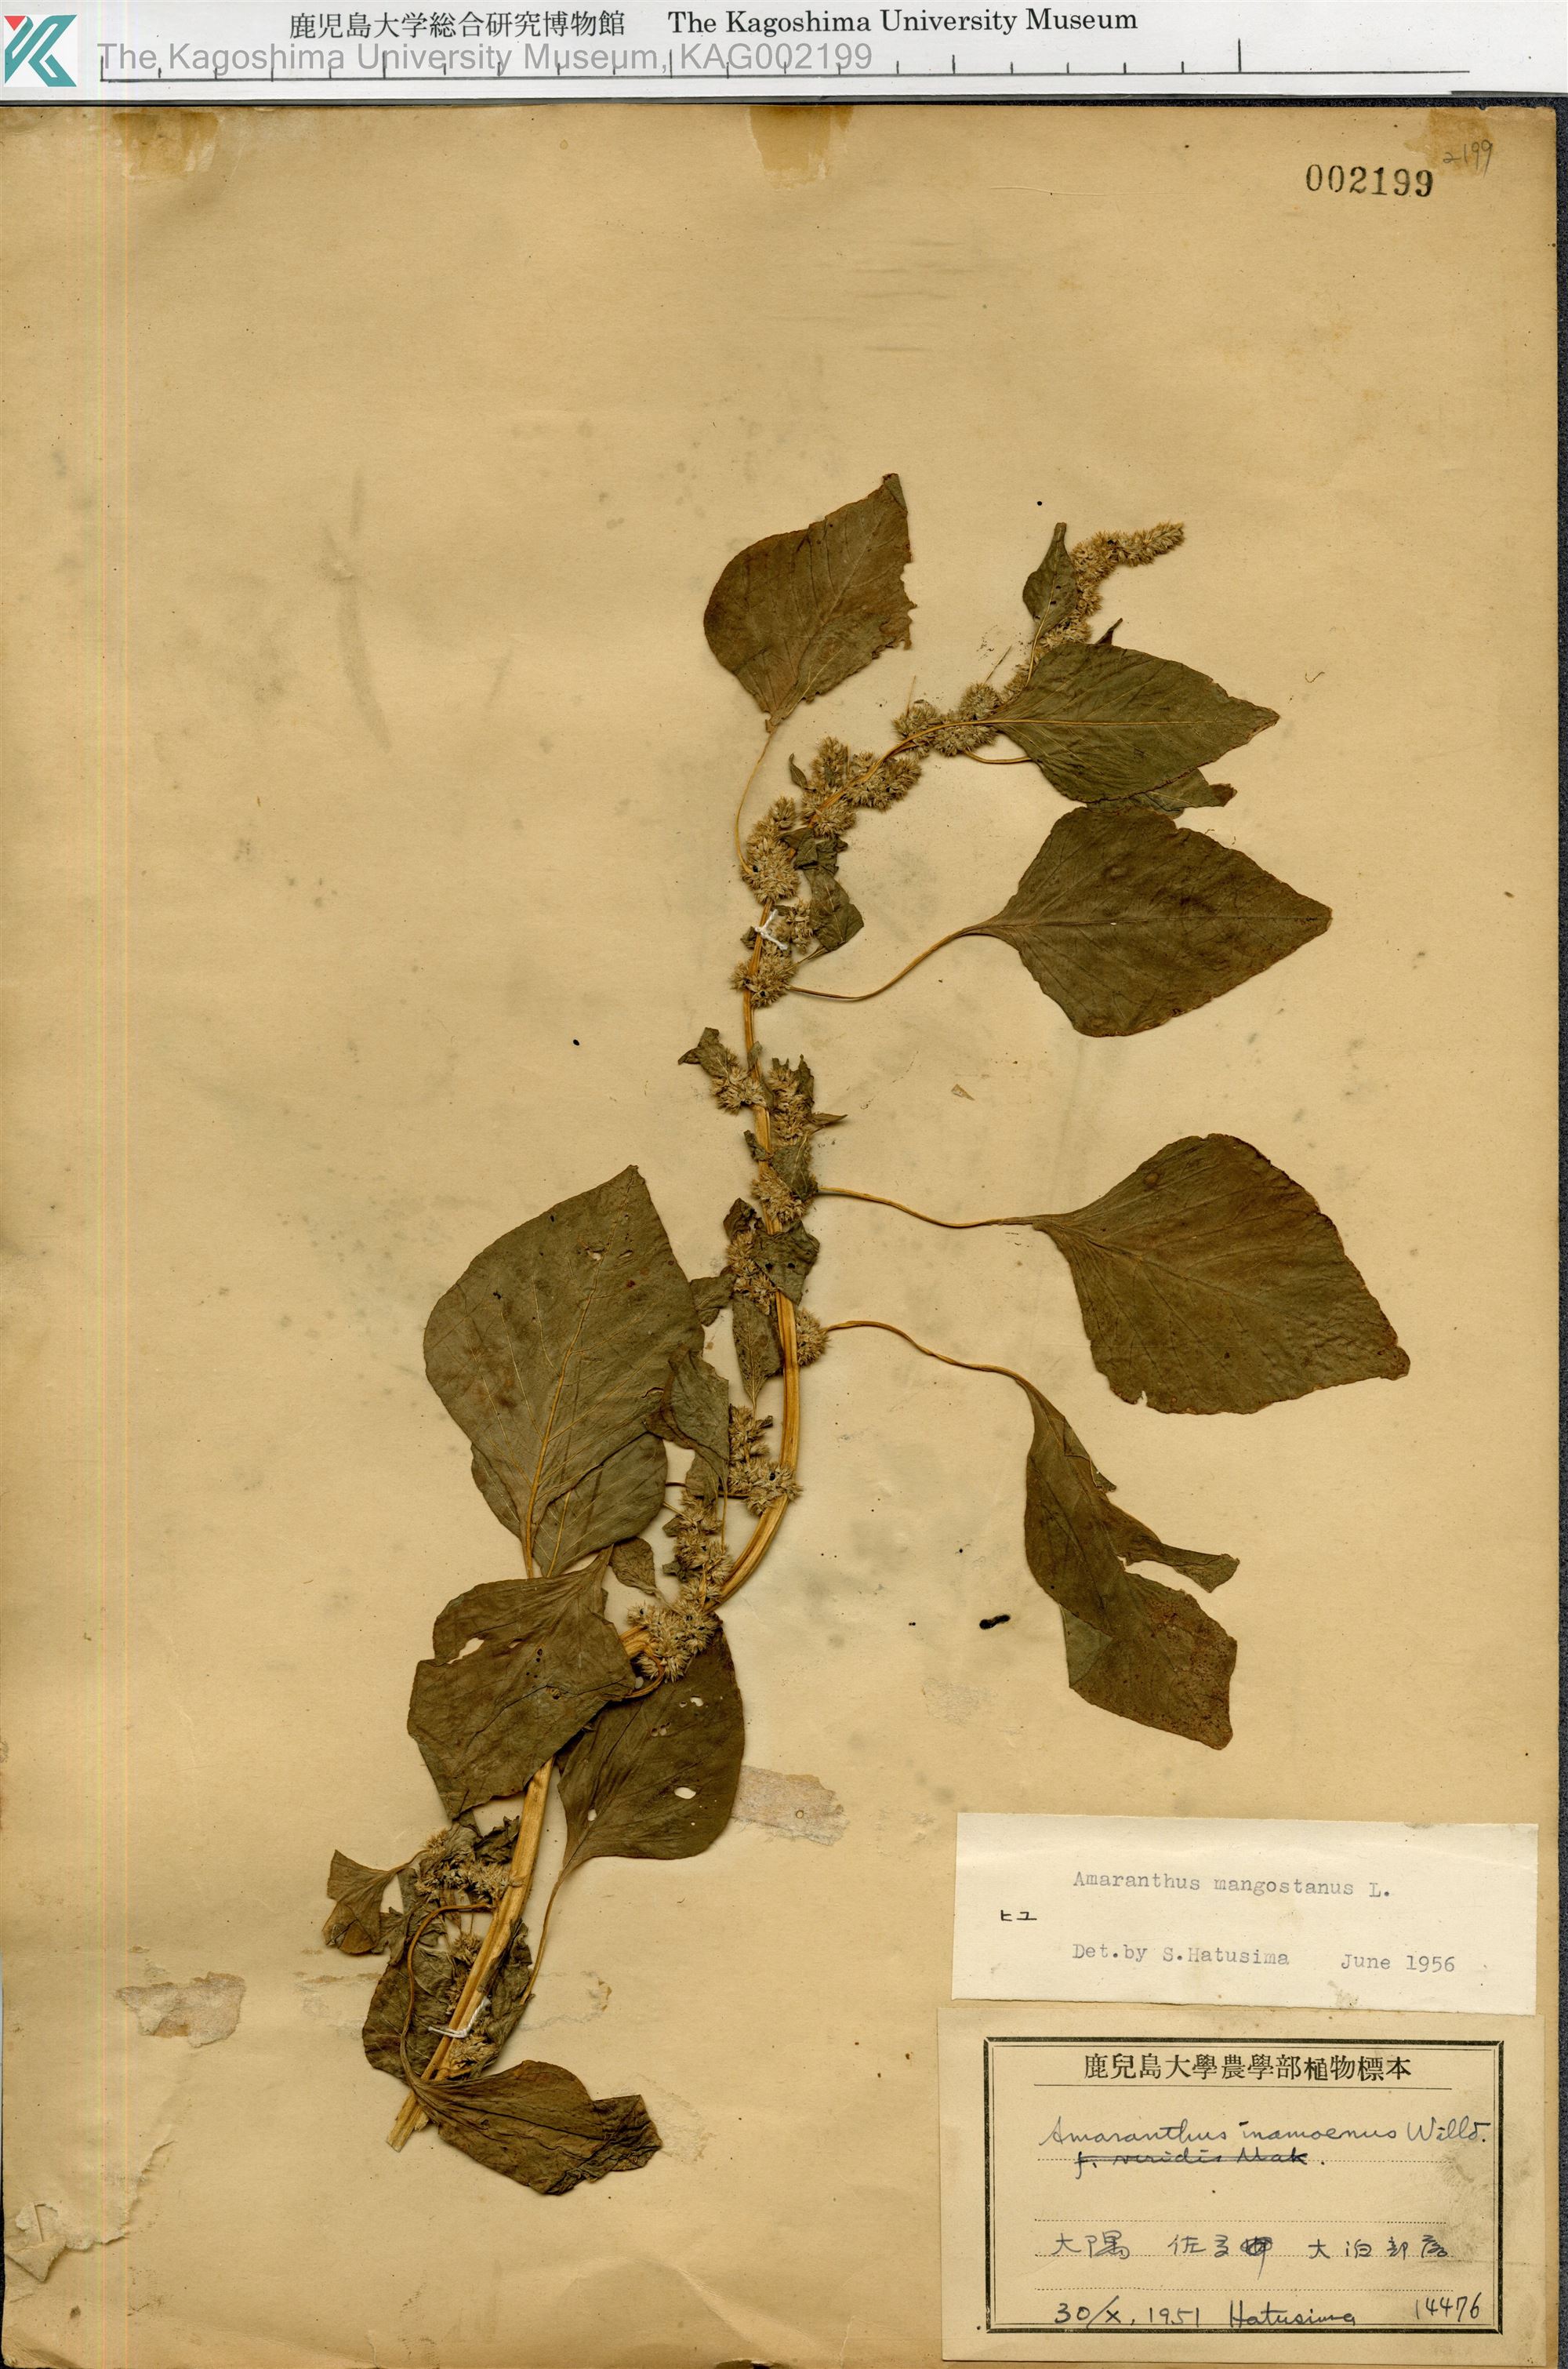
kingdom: Plantae
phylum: Tracheophyta
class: Magnoliopsida
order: Caryophyllales
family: Amaranthaceae
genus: Amaranthus
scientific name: Amaranthus tricolor
